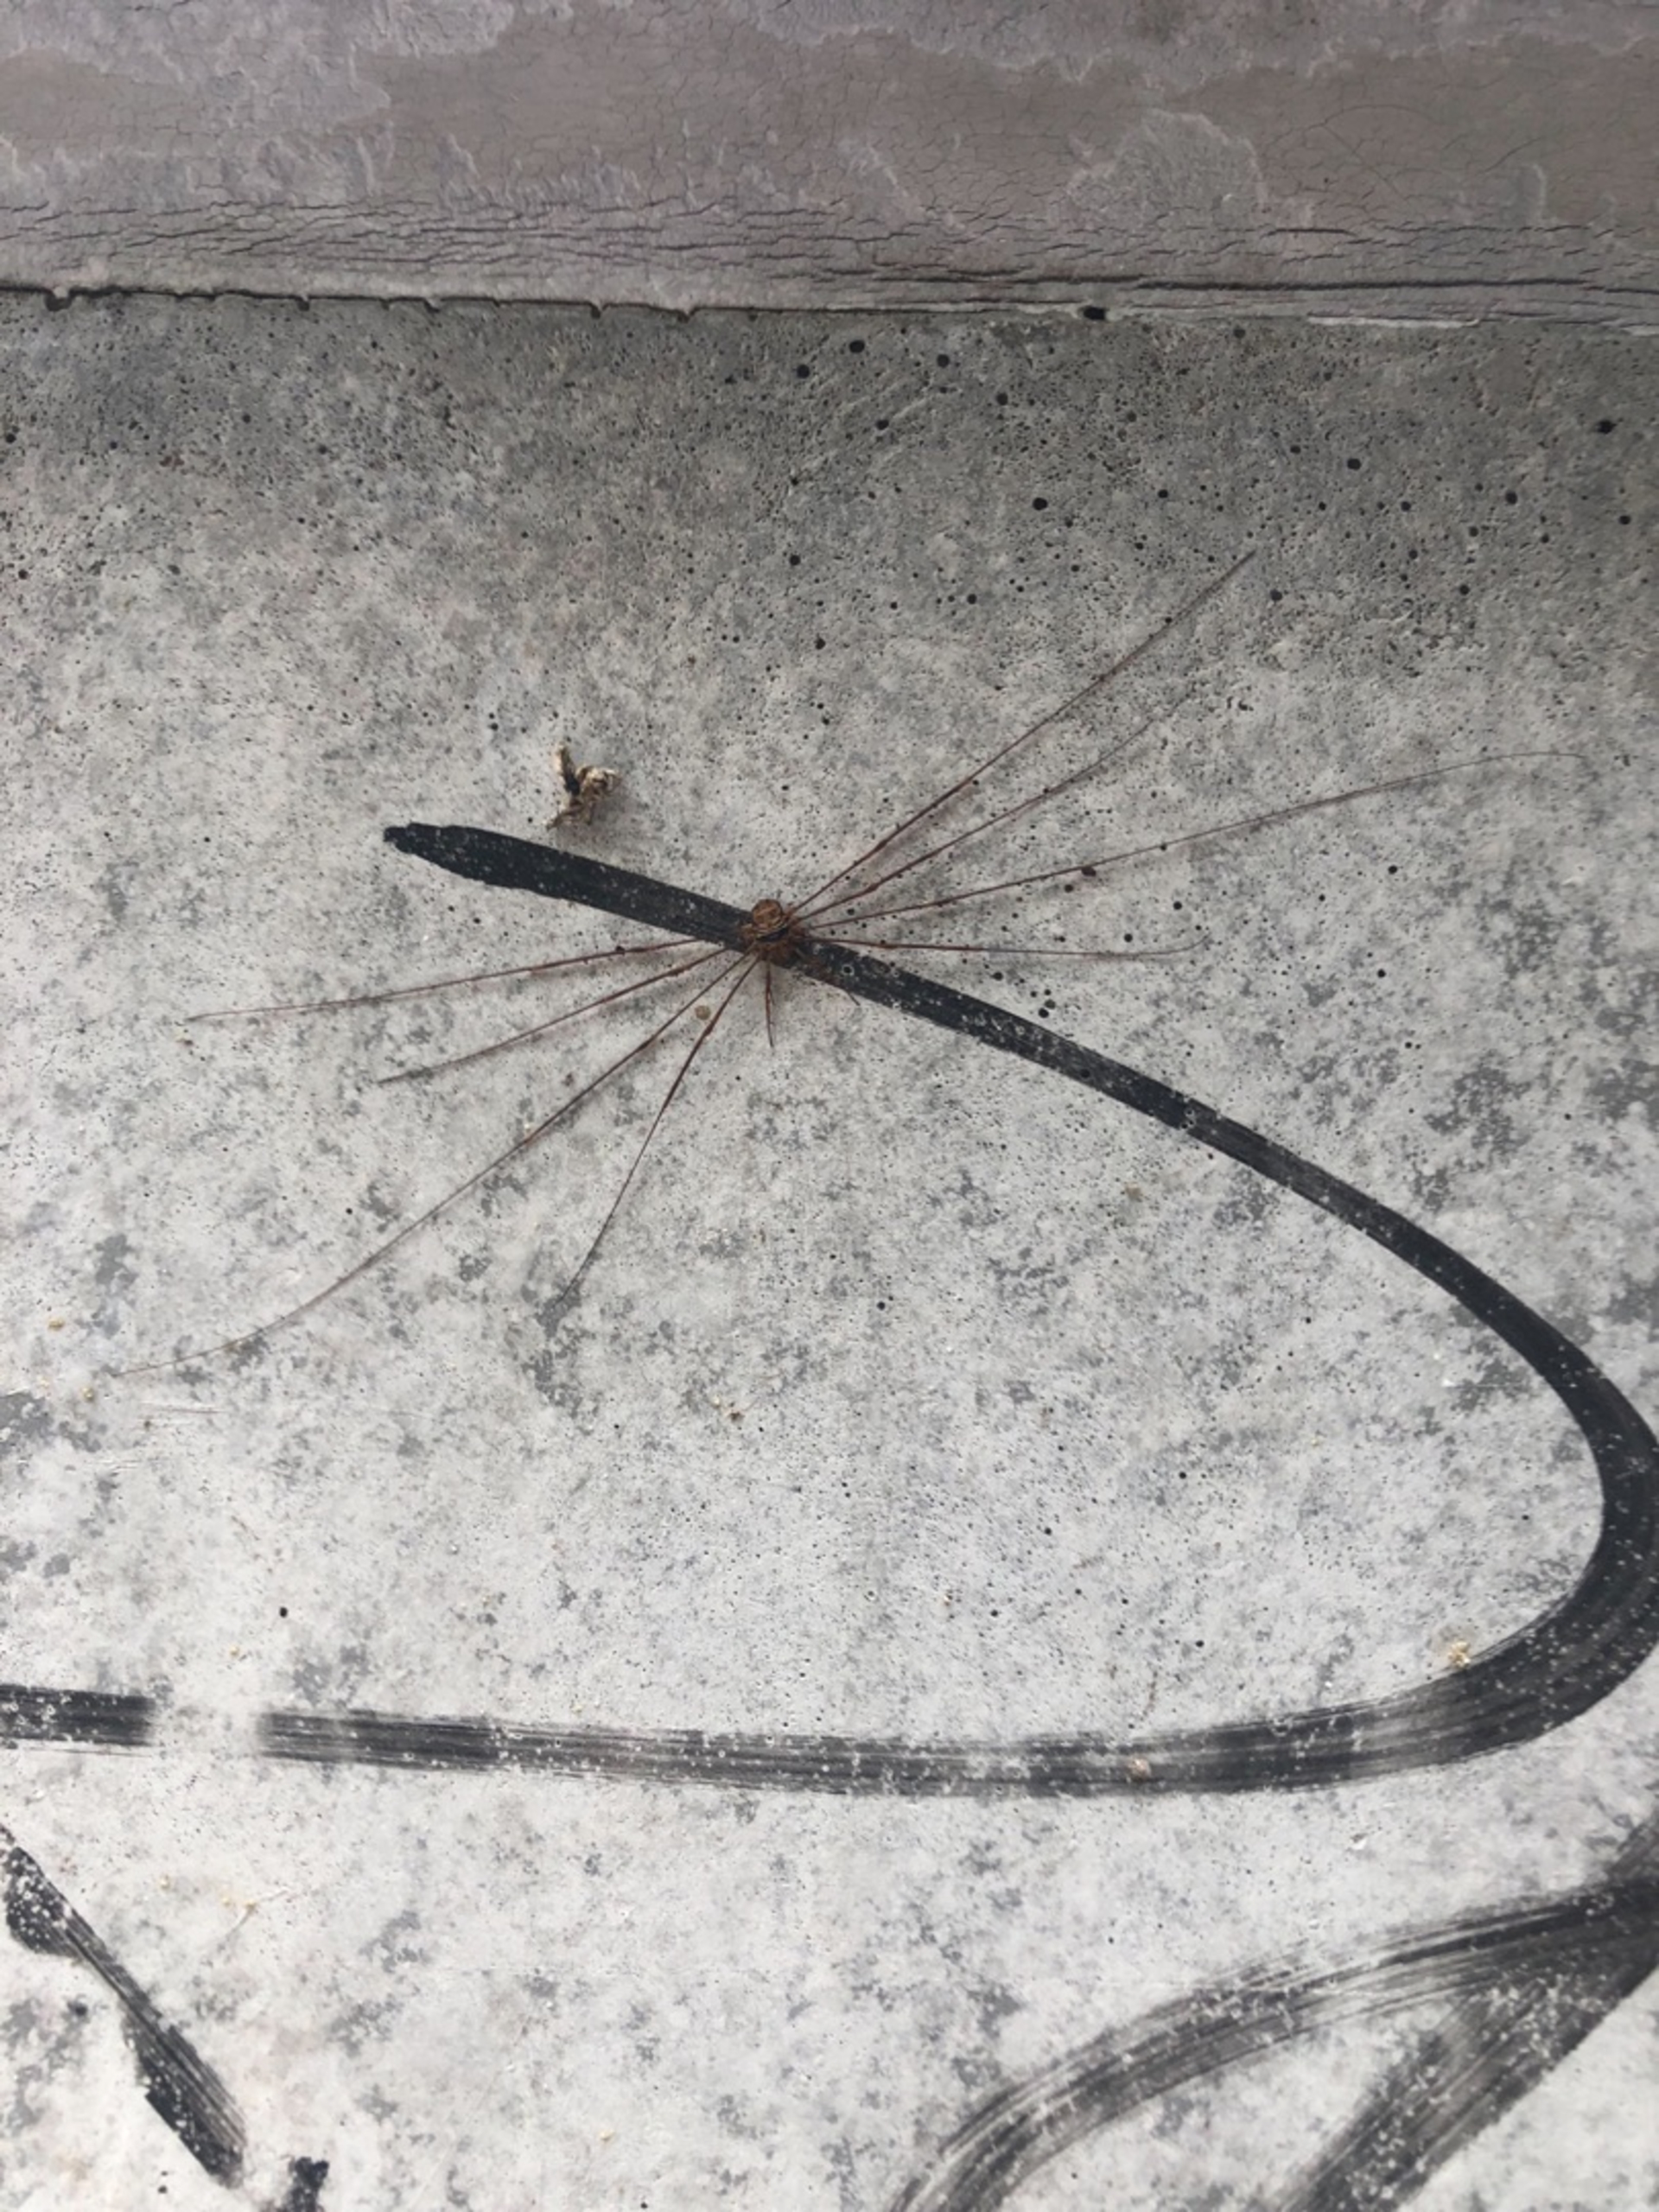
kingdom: Animalia
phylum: Arthropoda
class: Arachnida
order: Opiliones
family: Phalangiidae
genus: Dicranopalpus
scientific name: Dicranopalpus ramosus
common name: Gaffelmejer
